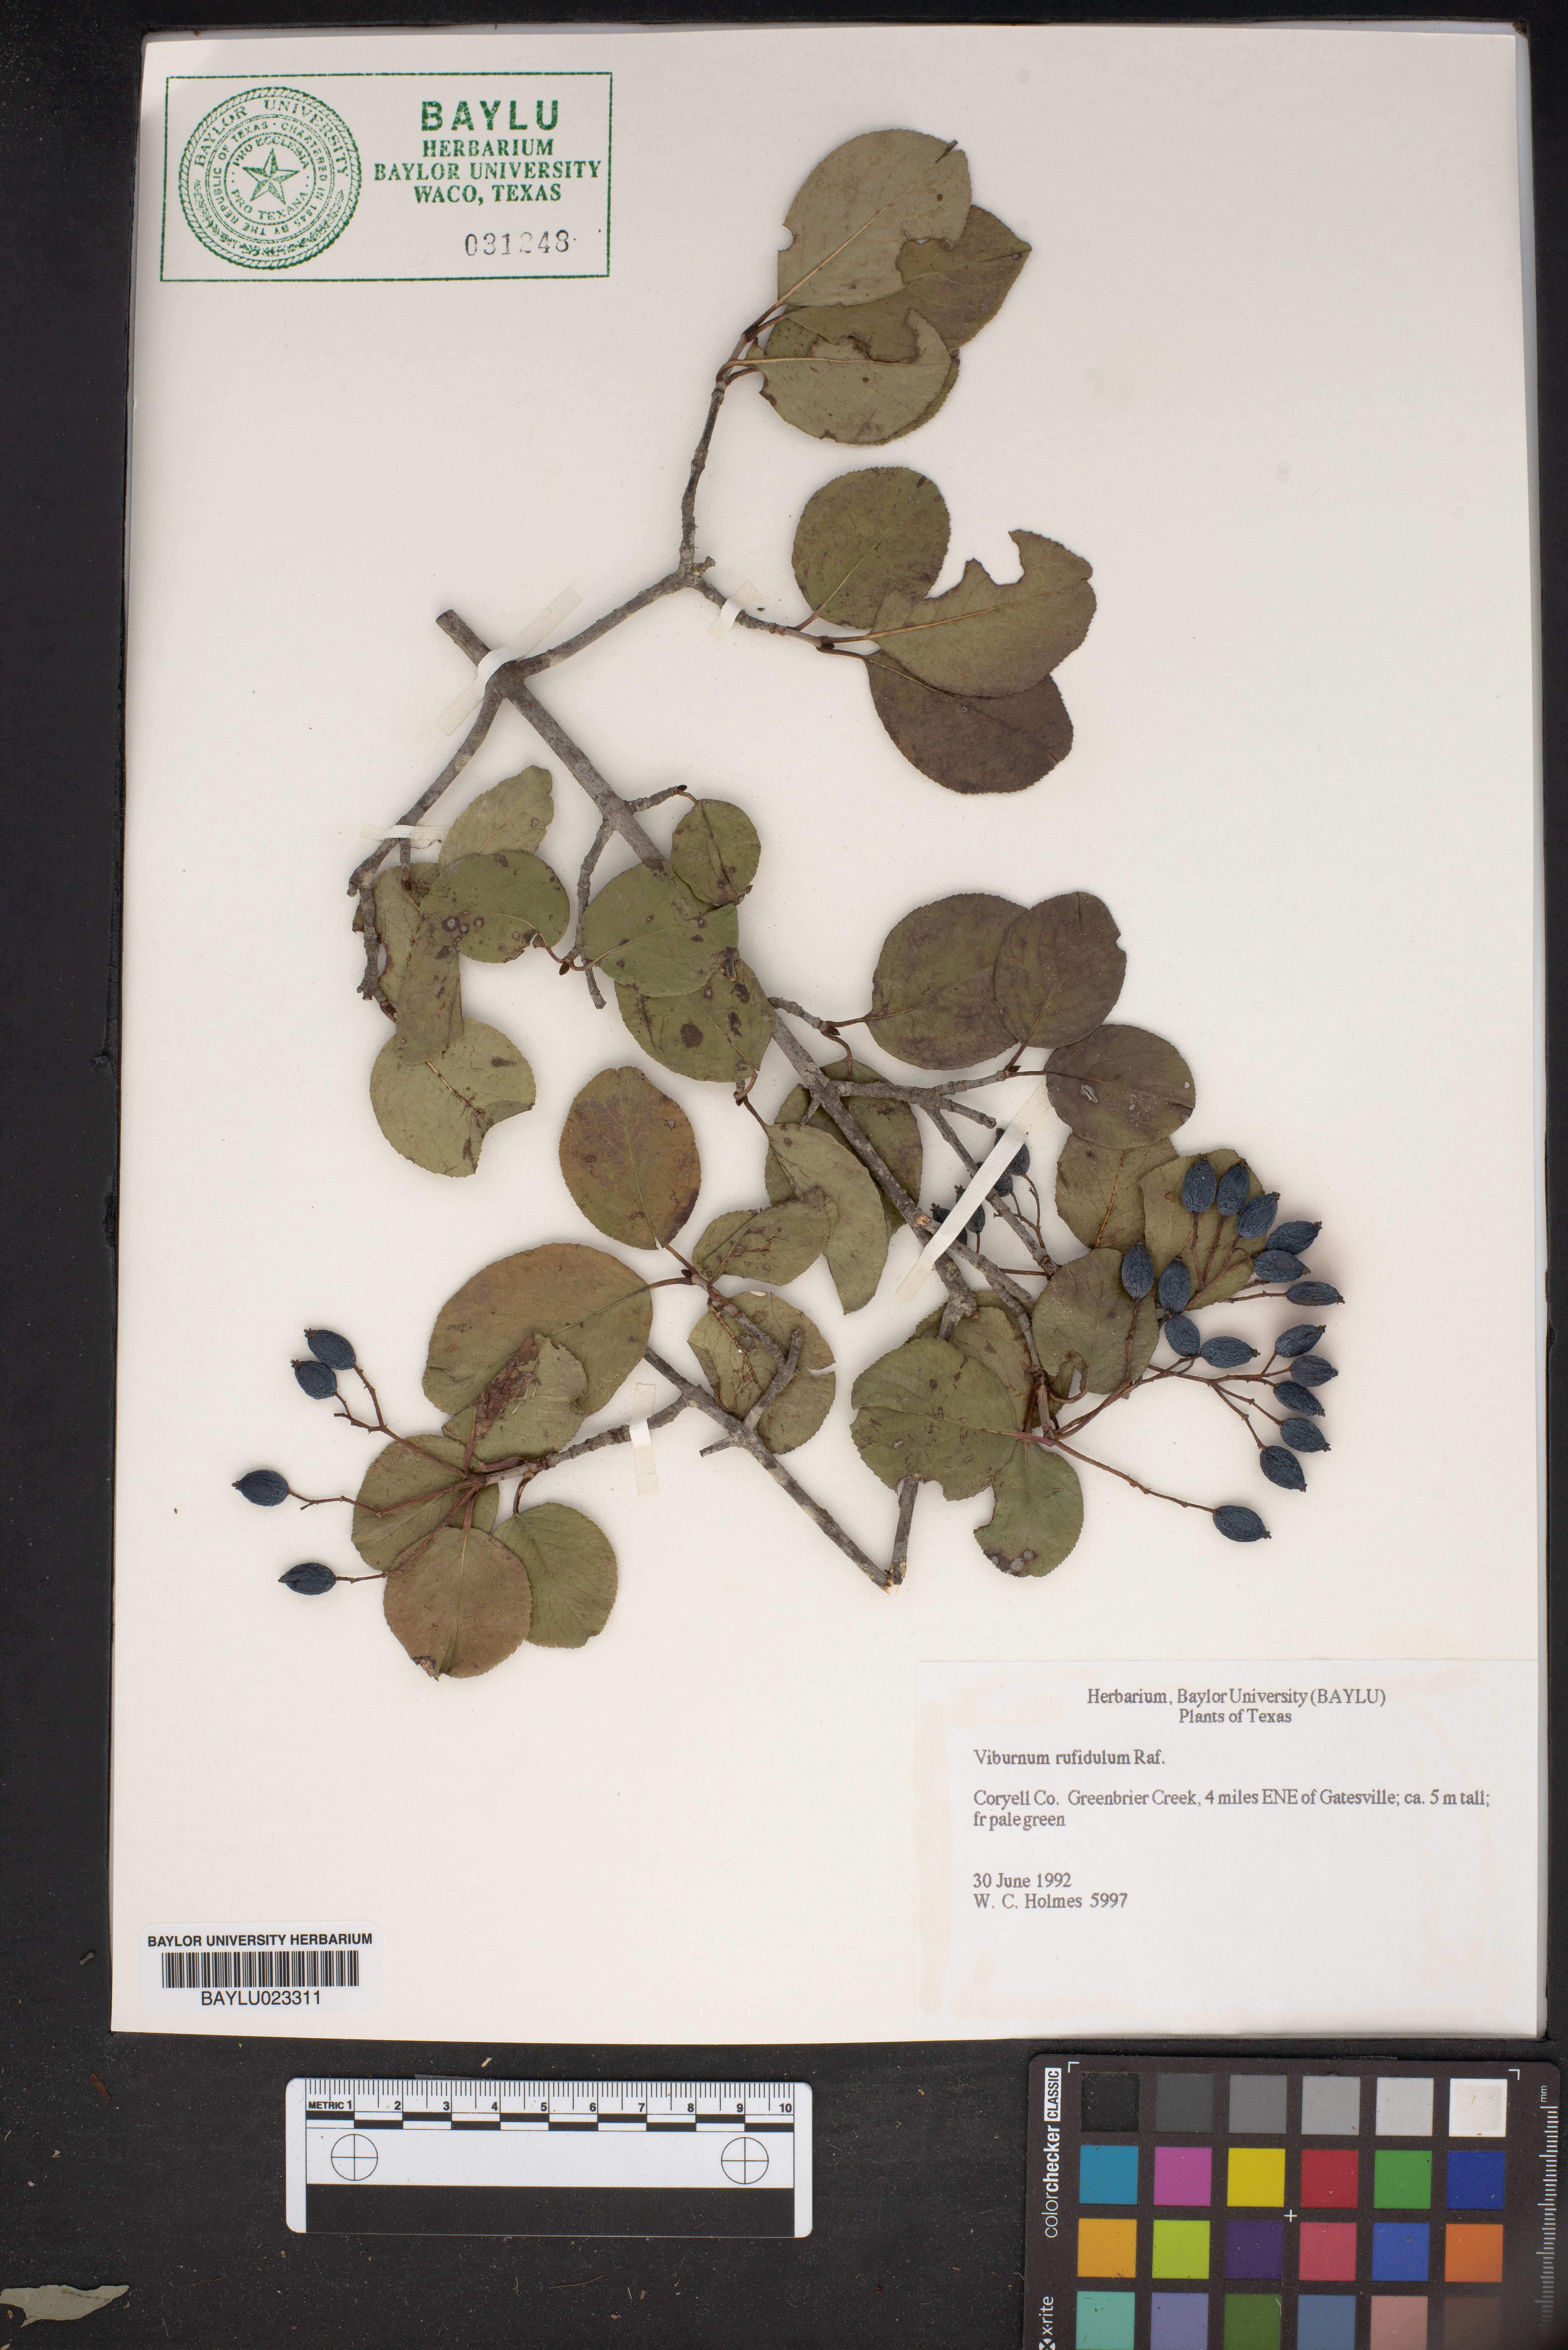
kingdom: Plantae
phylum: Tracheophyta
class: Magnoliopsida
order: Dipsacales
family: Viburnaceae
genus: Viburnum
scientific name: Viburnum rufidulum
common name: Blue haw
